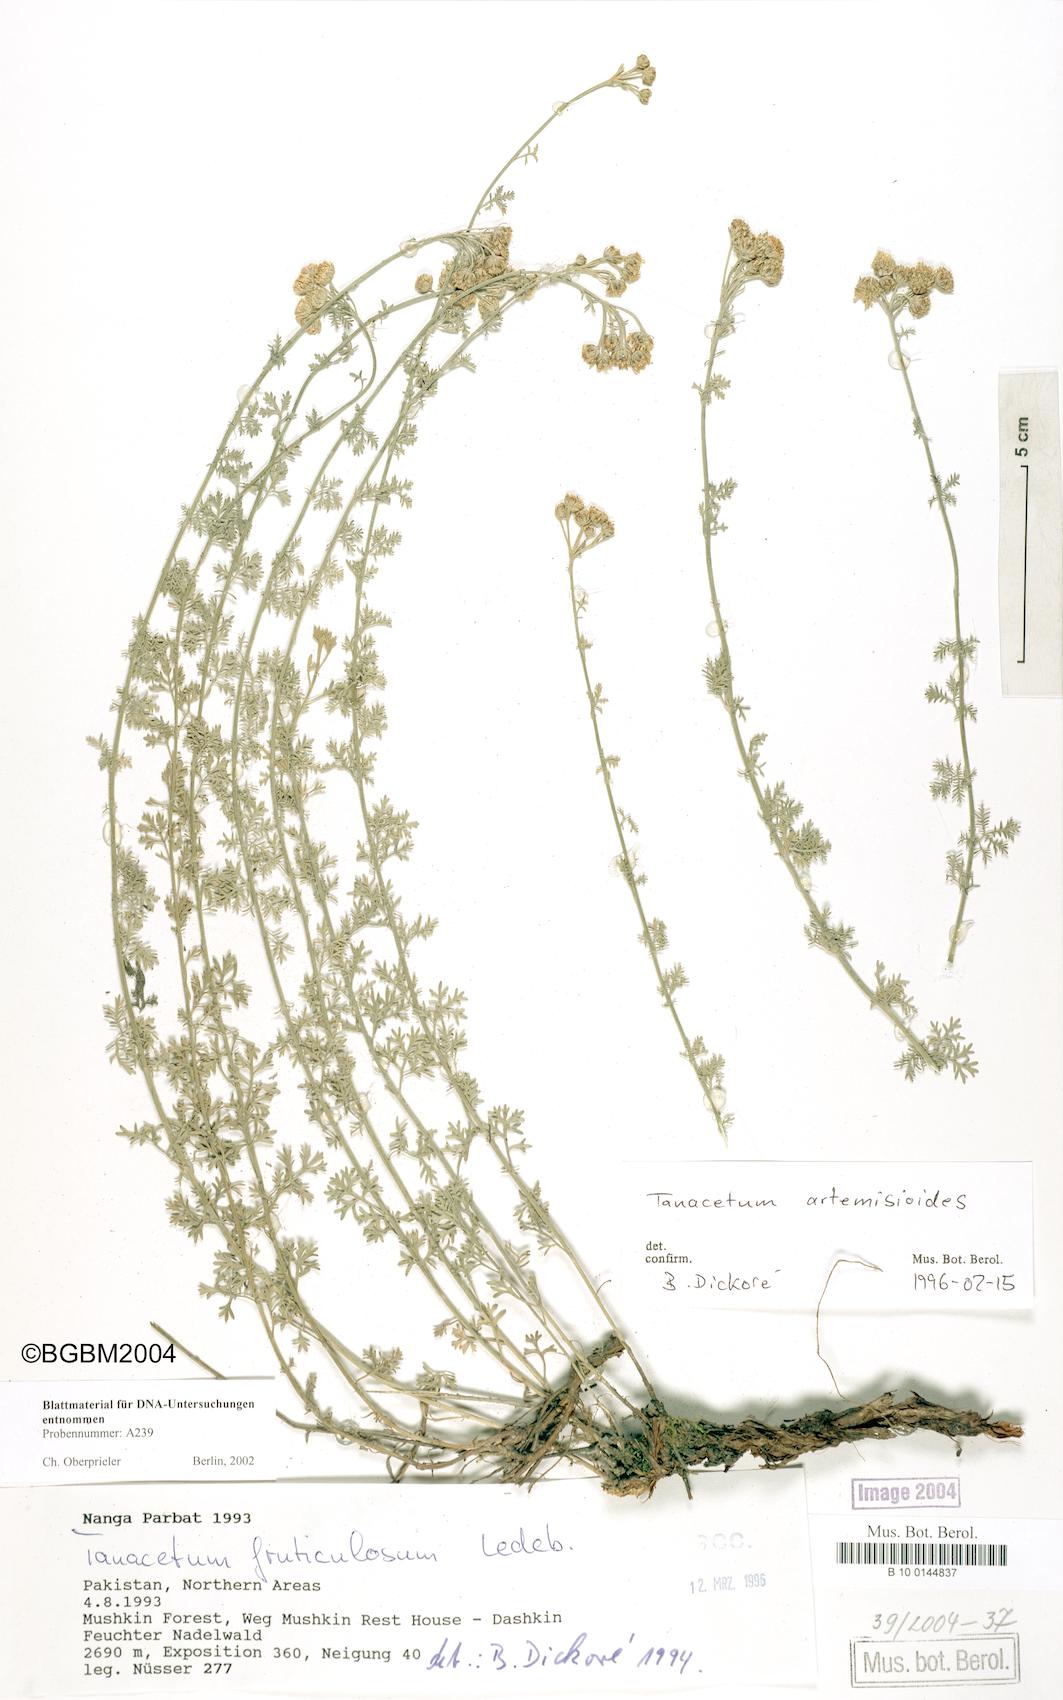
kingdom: Plantae
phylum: Tracheophyta
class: Magnoliopsida
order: Asterales
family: Asteraceae
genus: Tanacetum
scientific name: Tanacetum artemisioides
